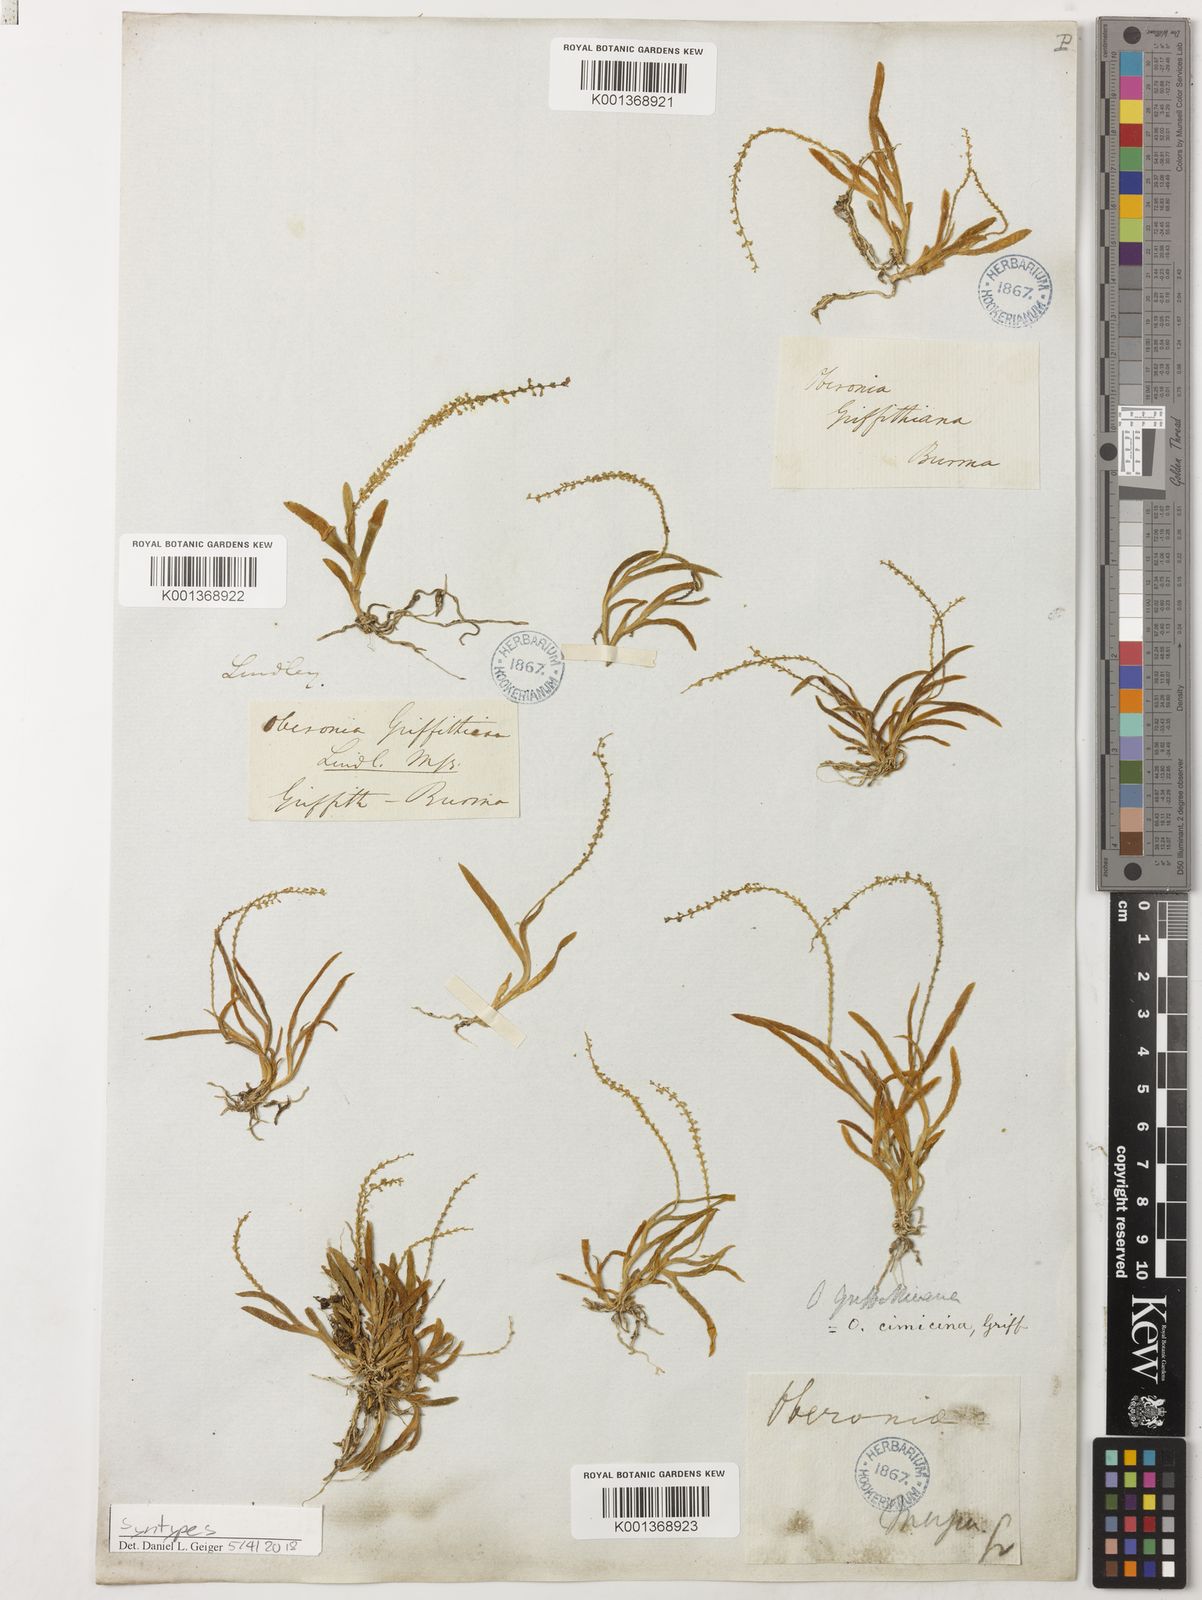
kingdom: Plantae
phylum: Tracheophyta
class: Liliopsida
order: Asparagales
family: Orchidaceae
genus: Oberonia
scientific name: Oberonia griffithiana
